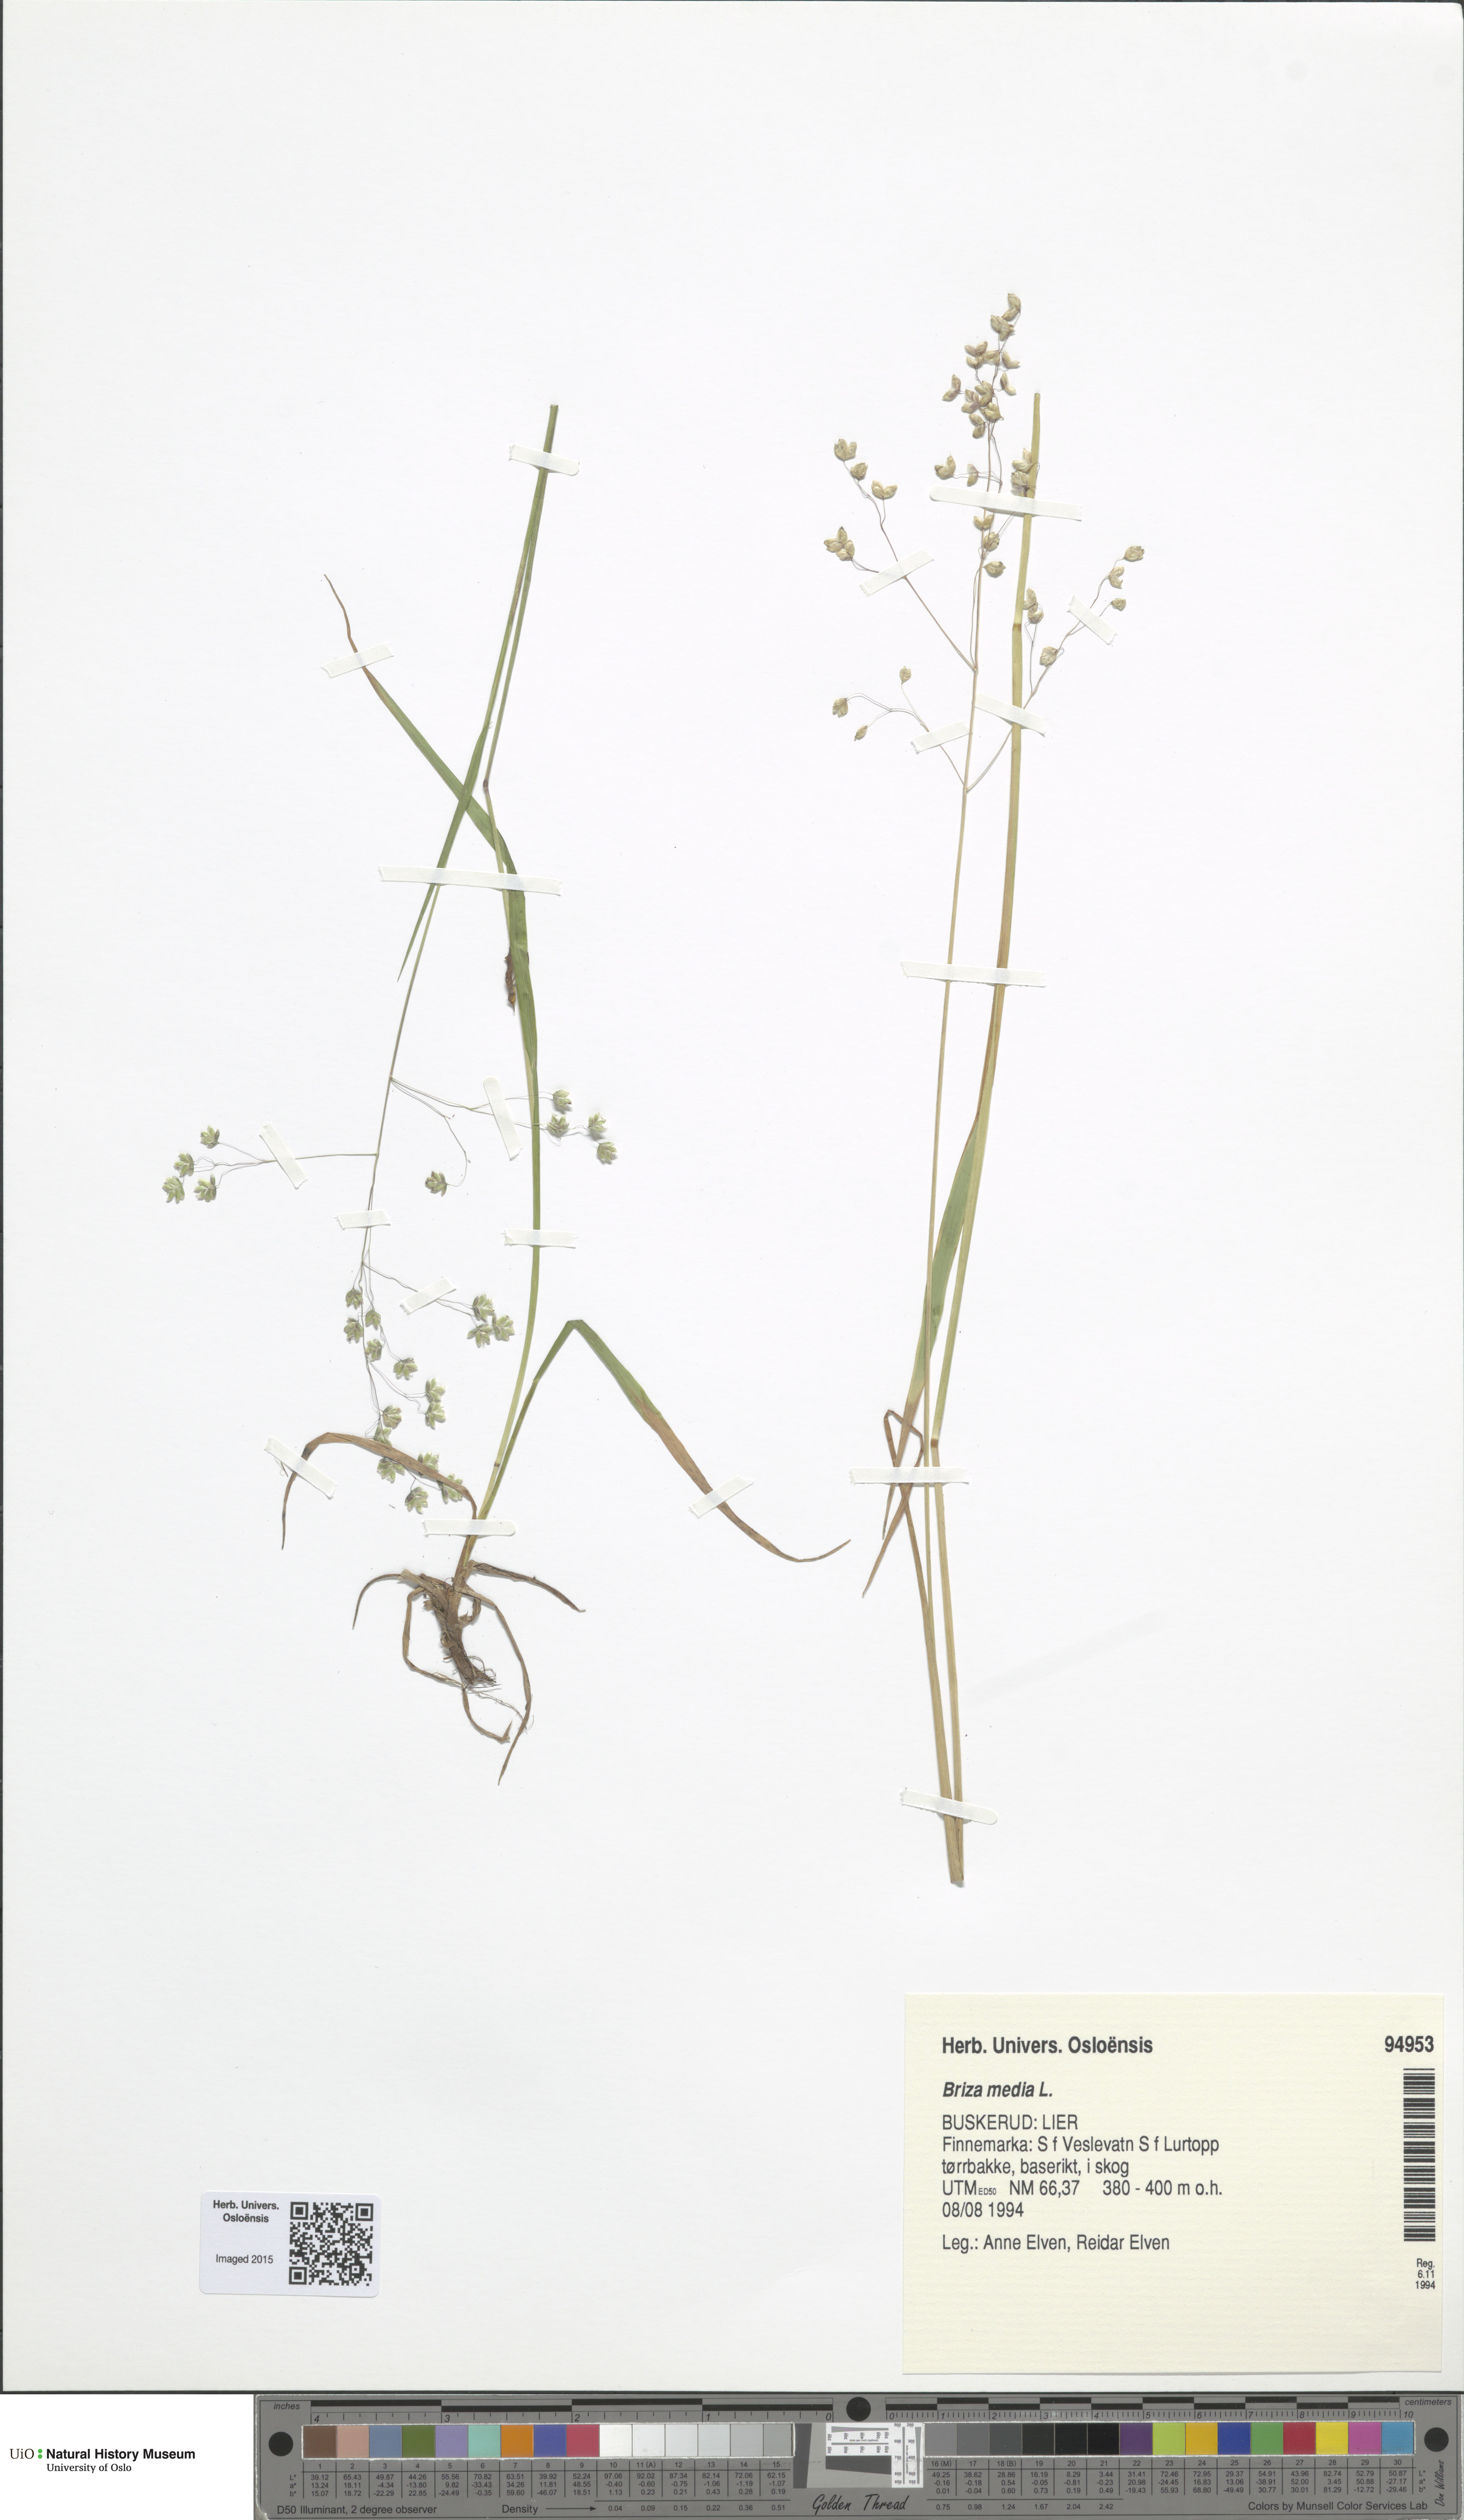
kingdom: Plantae
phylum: Tracheophyta
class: Liliopsida
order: Poales
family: Poaceae
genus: Briza
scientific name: Briza media
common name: Quaking grass
